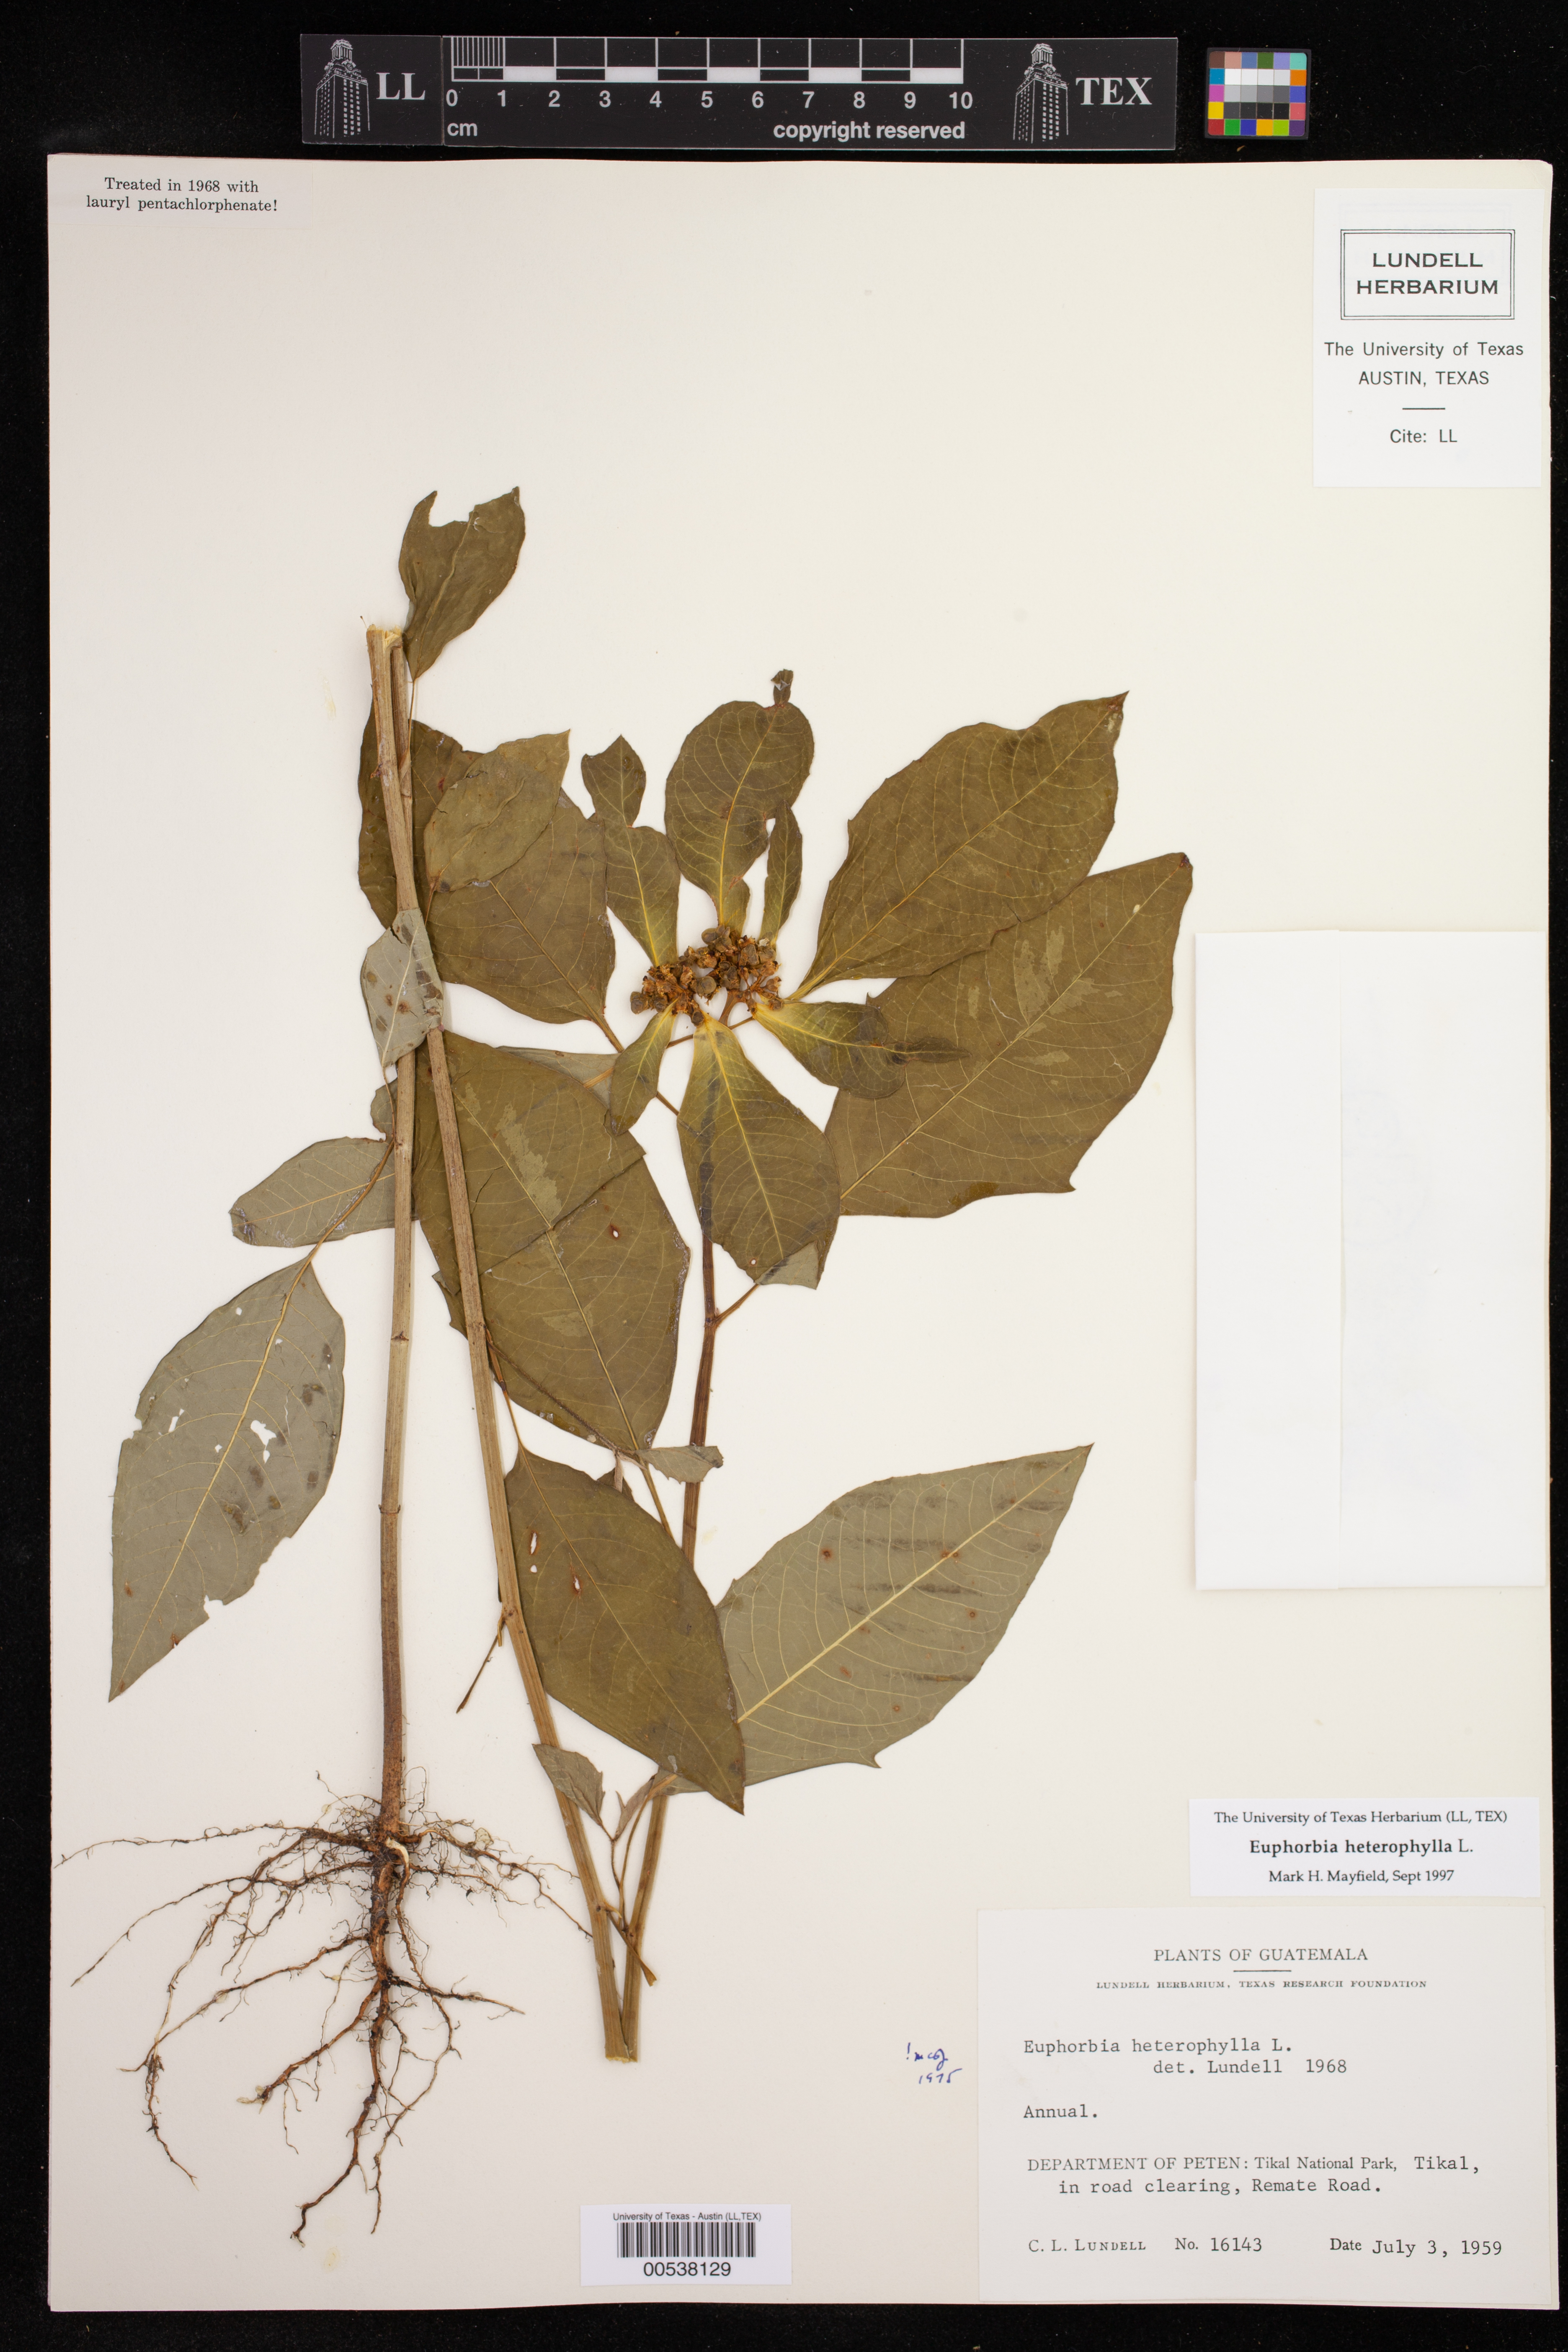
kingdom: Plantae
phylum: Tracheophyta
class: Magnoliopsida
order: Malpighiales
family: Euphorbiaceae
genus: Euphorbia
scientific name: Euphorbia heterophylla
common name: Mexican fireplant
